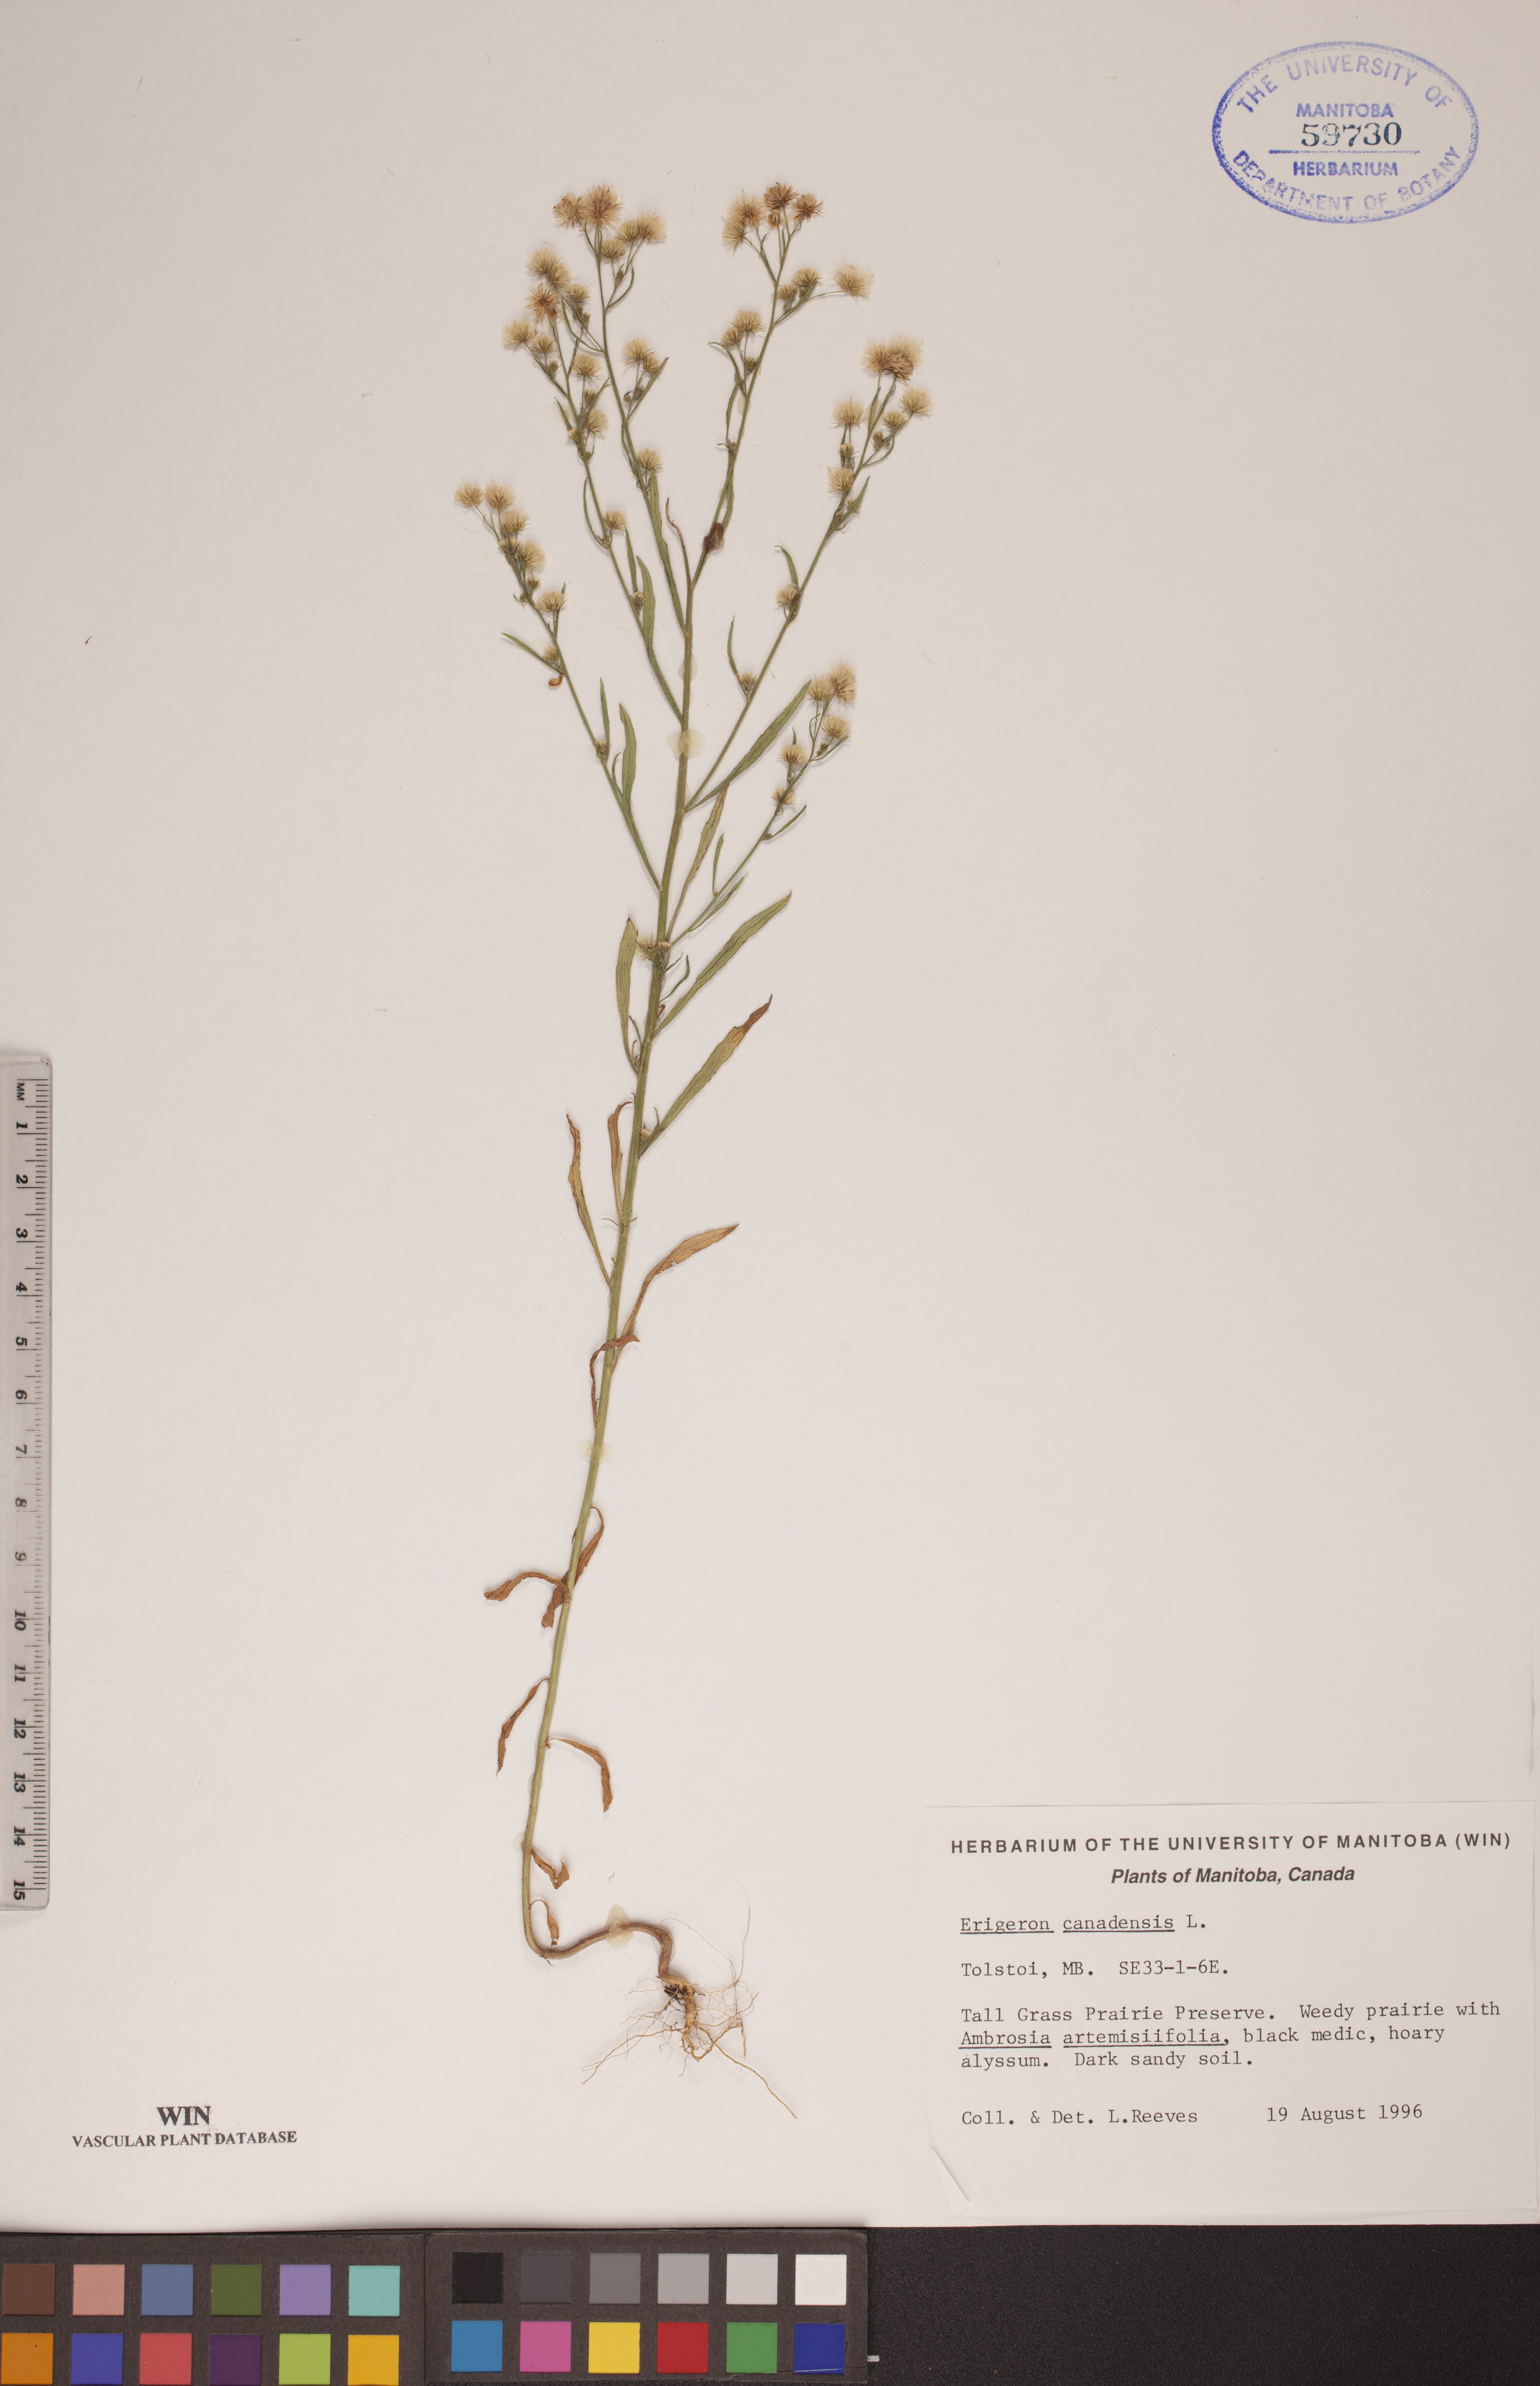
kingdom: Plantae
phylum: Tracheophyta
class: Magnoliopsida
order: Asterales
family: Asteraceae
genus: Erigeron
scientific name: Erigeron canadensis
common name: Canadian fleabane
